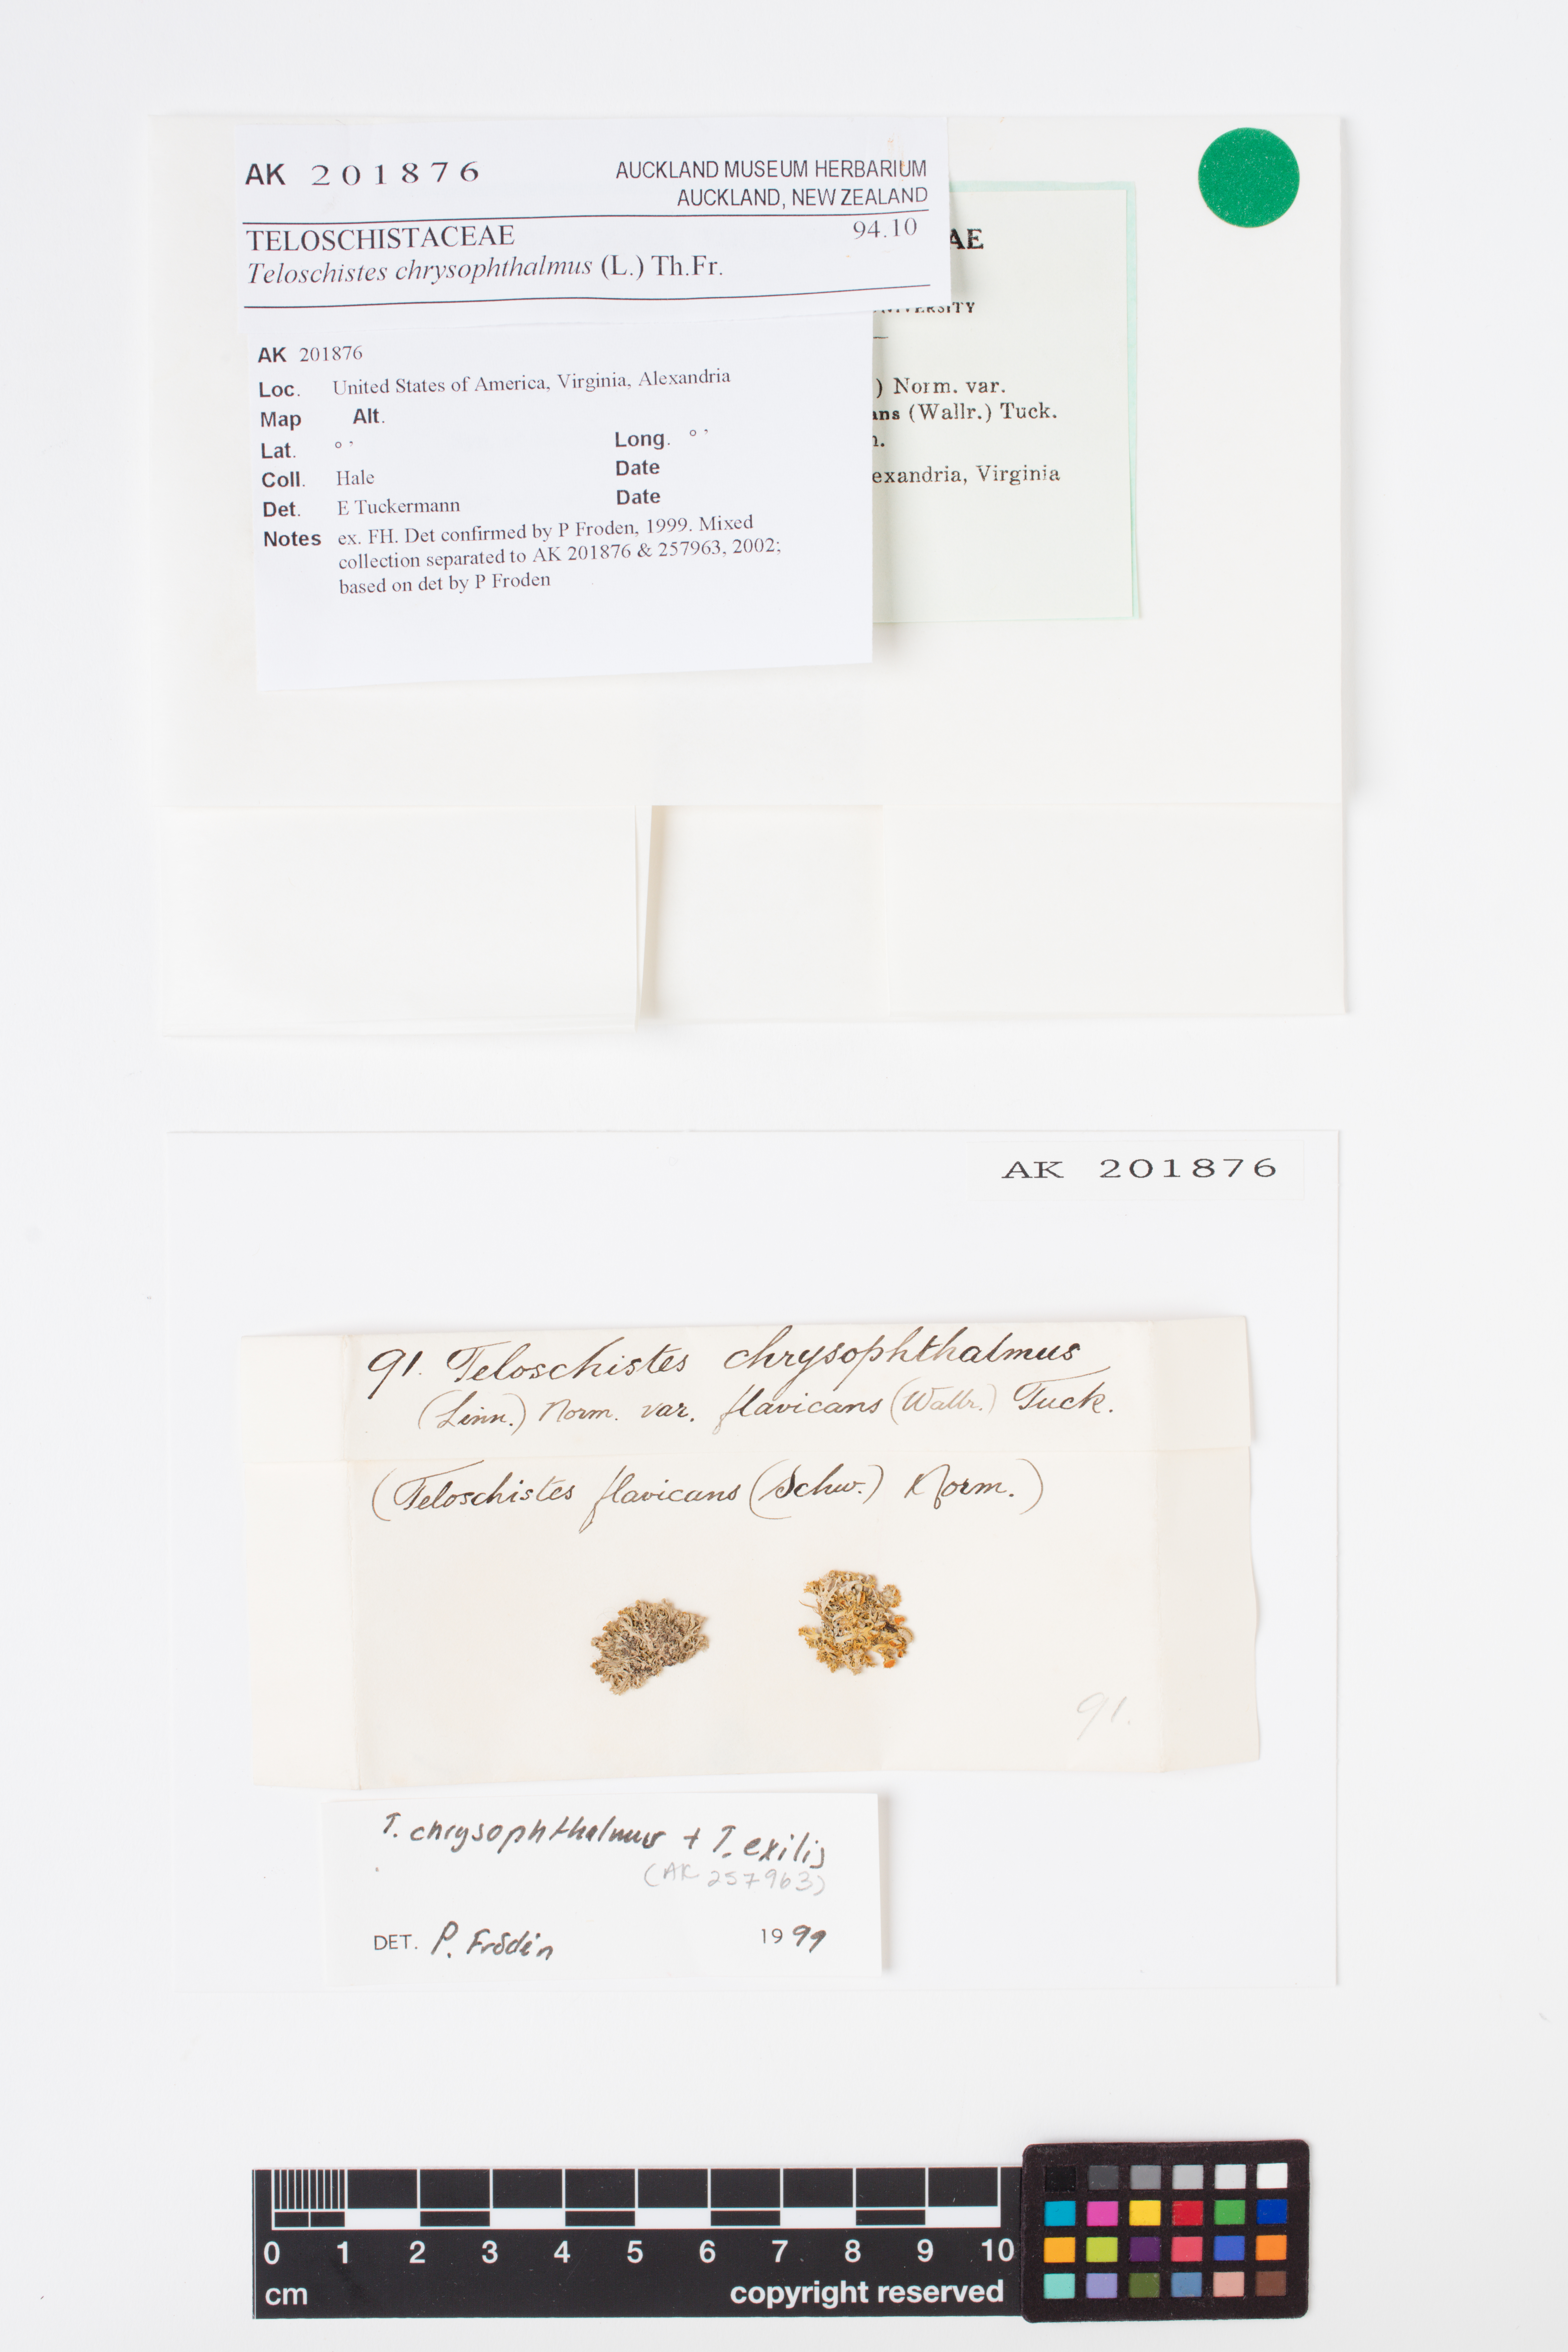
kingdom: Fungi
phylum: Ascomycota
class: Lecanoromycetes
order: Teloschistales
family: Teloschistaceae
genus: Niorma
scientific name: Niorma chrysophthalma
